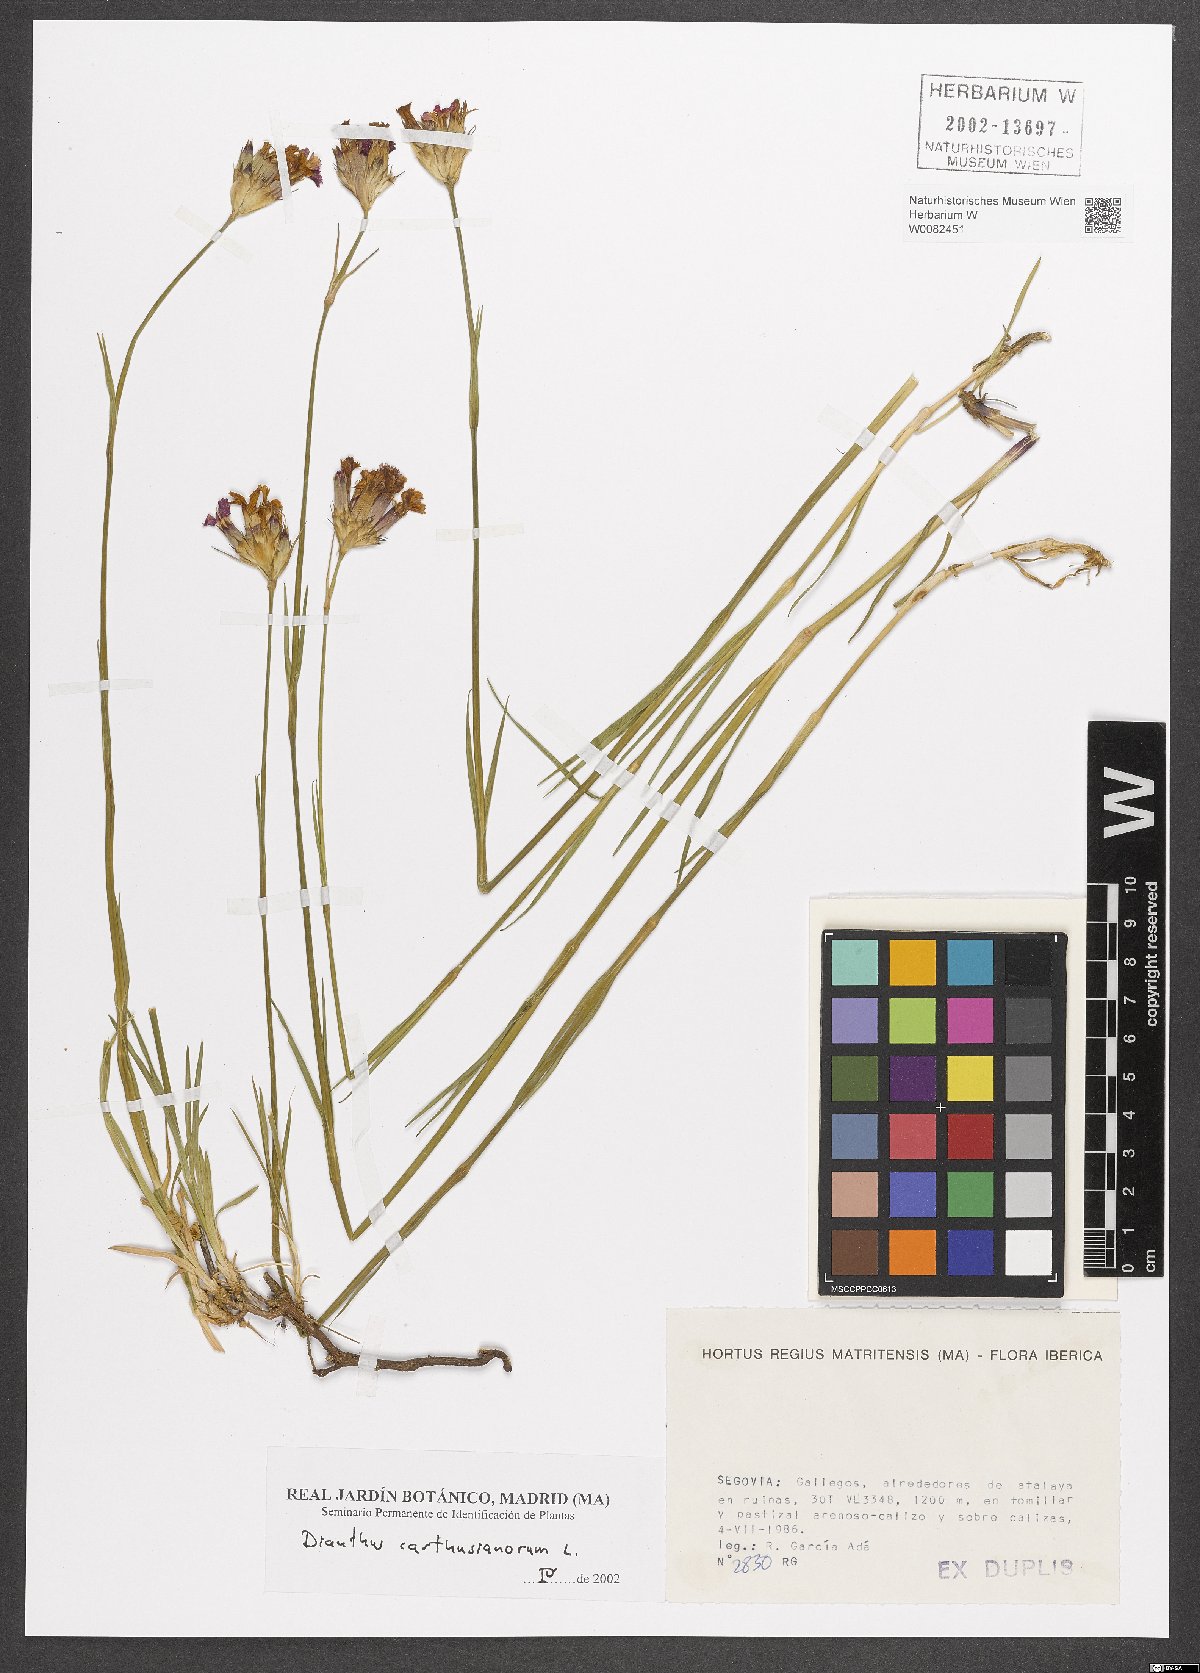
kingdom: Plantae
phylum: Tracheophyta
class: Magnoliopsida
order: Caryophyllales
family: Caryophyllaceae
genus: Dianthus
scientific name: Dianthus carthusianorum
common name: Carthusian pink
